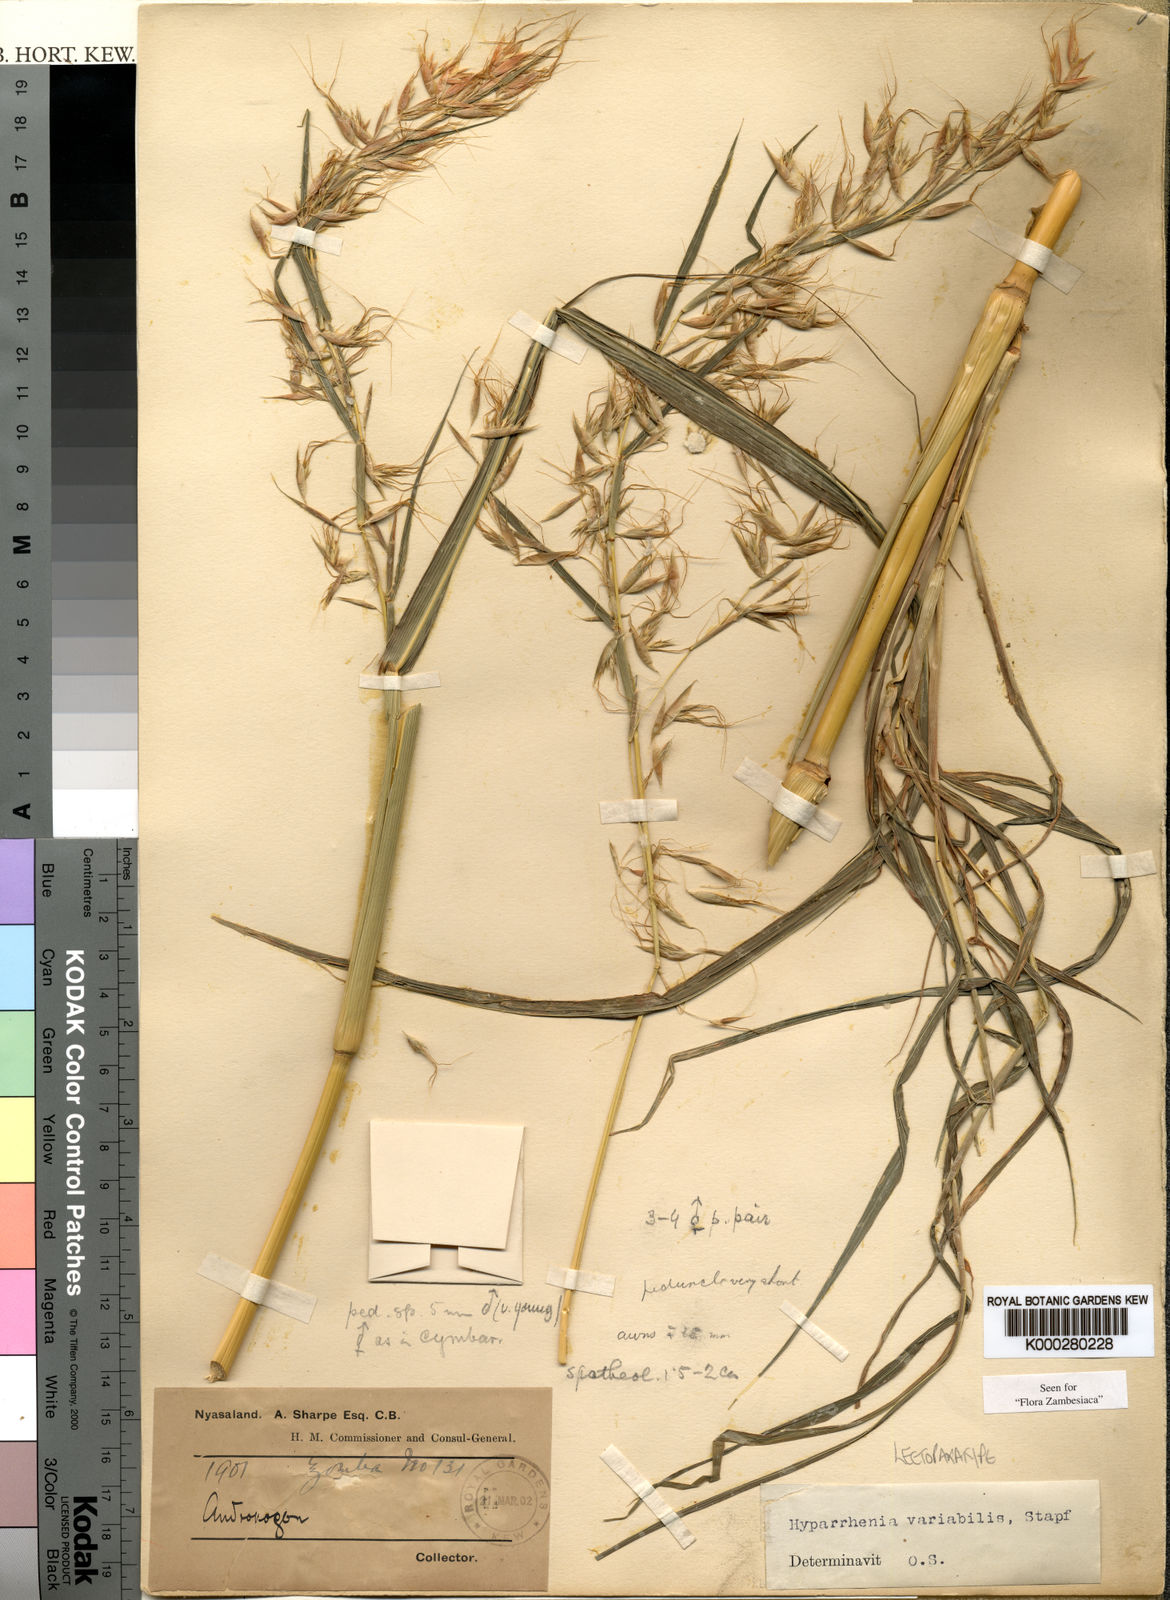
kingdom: Plantae
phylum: Tracheophyta
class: Liliopsida
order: Poales
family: Poaceae
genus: Hyparrhenia
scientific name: Hyparrhenia variabilis
